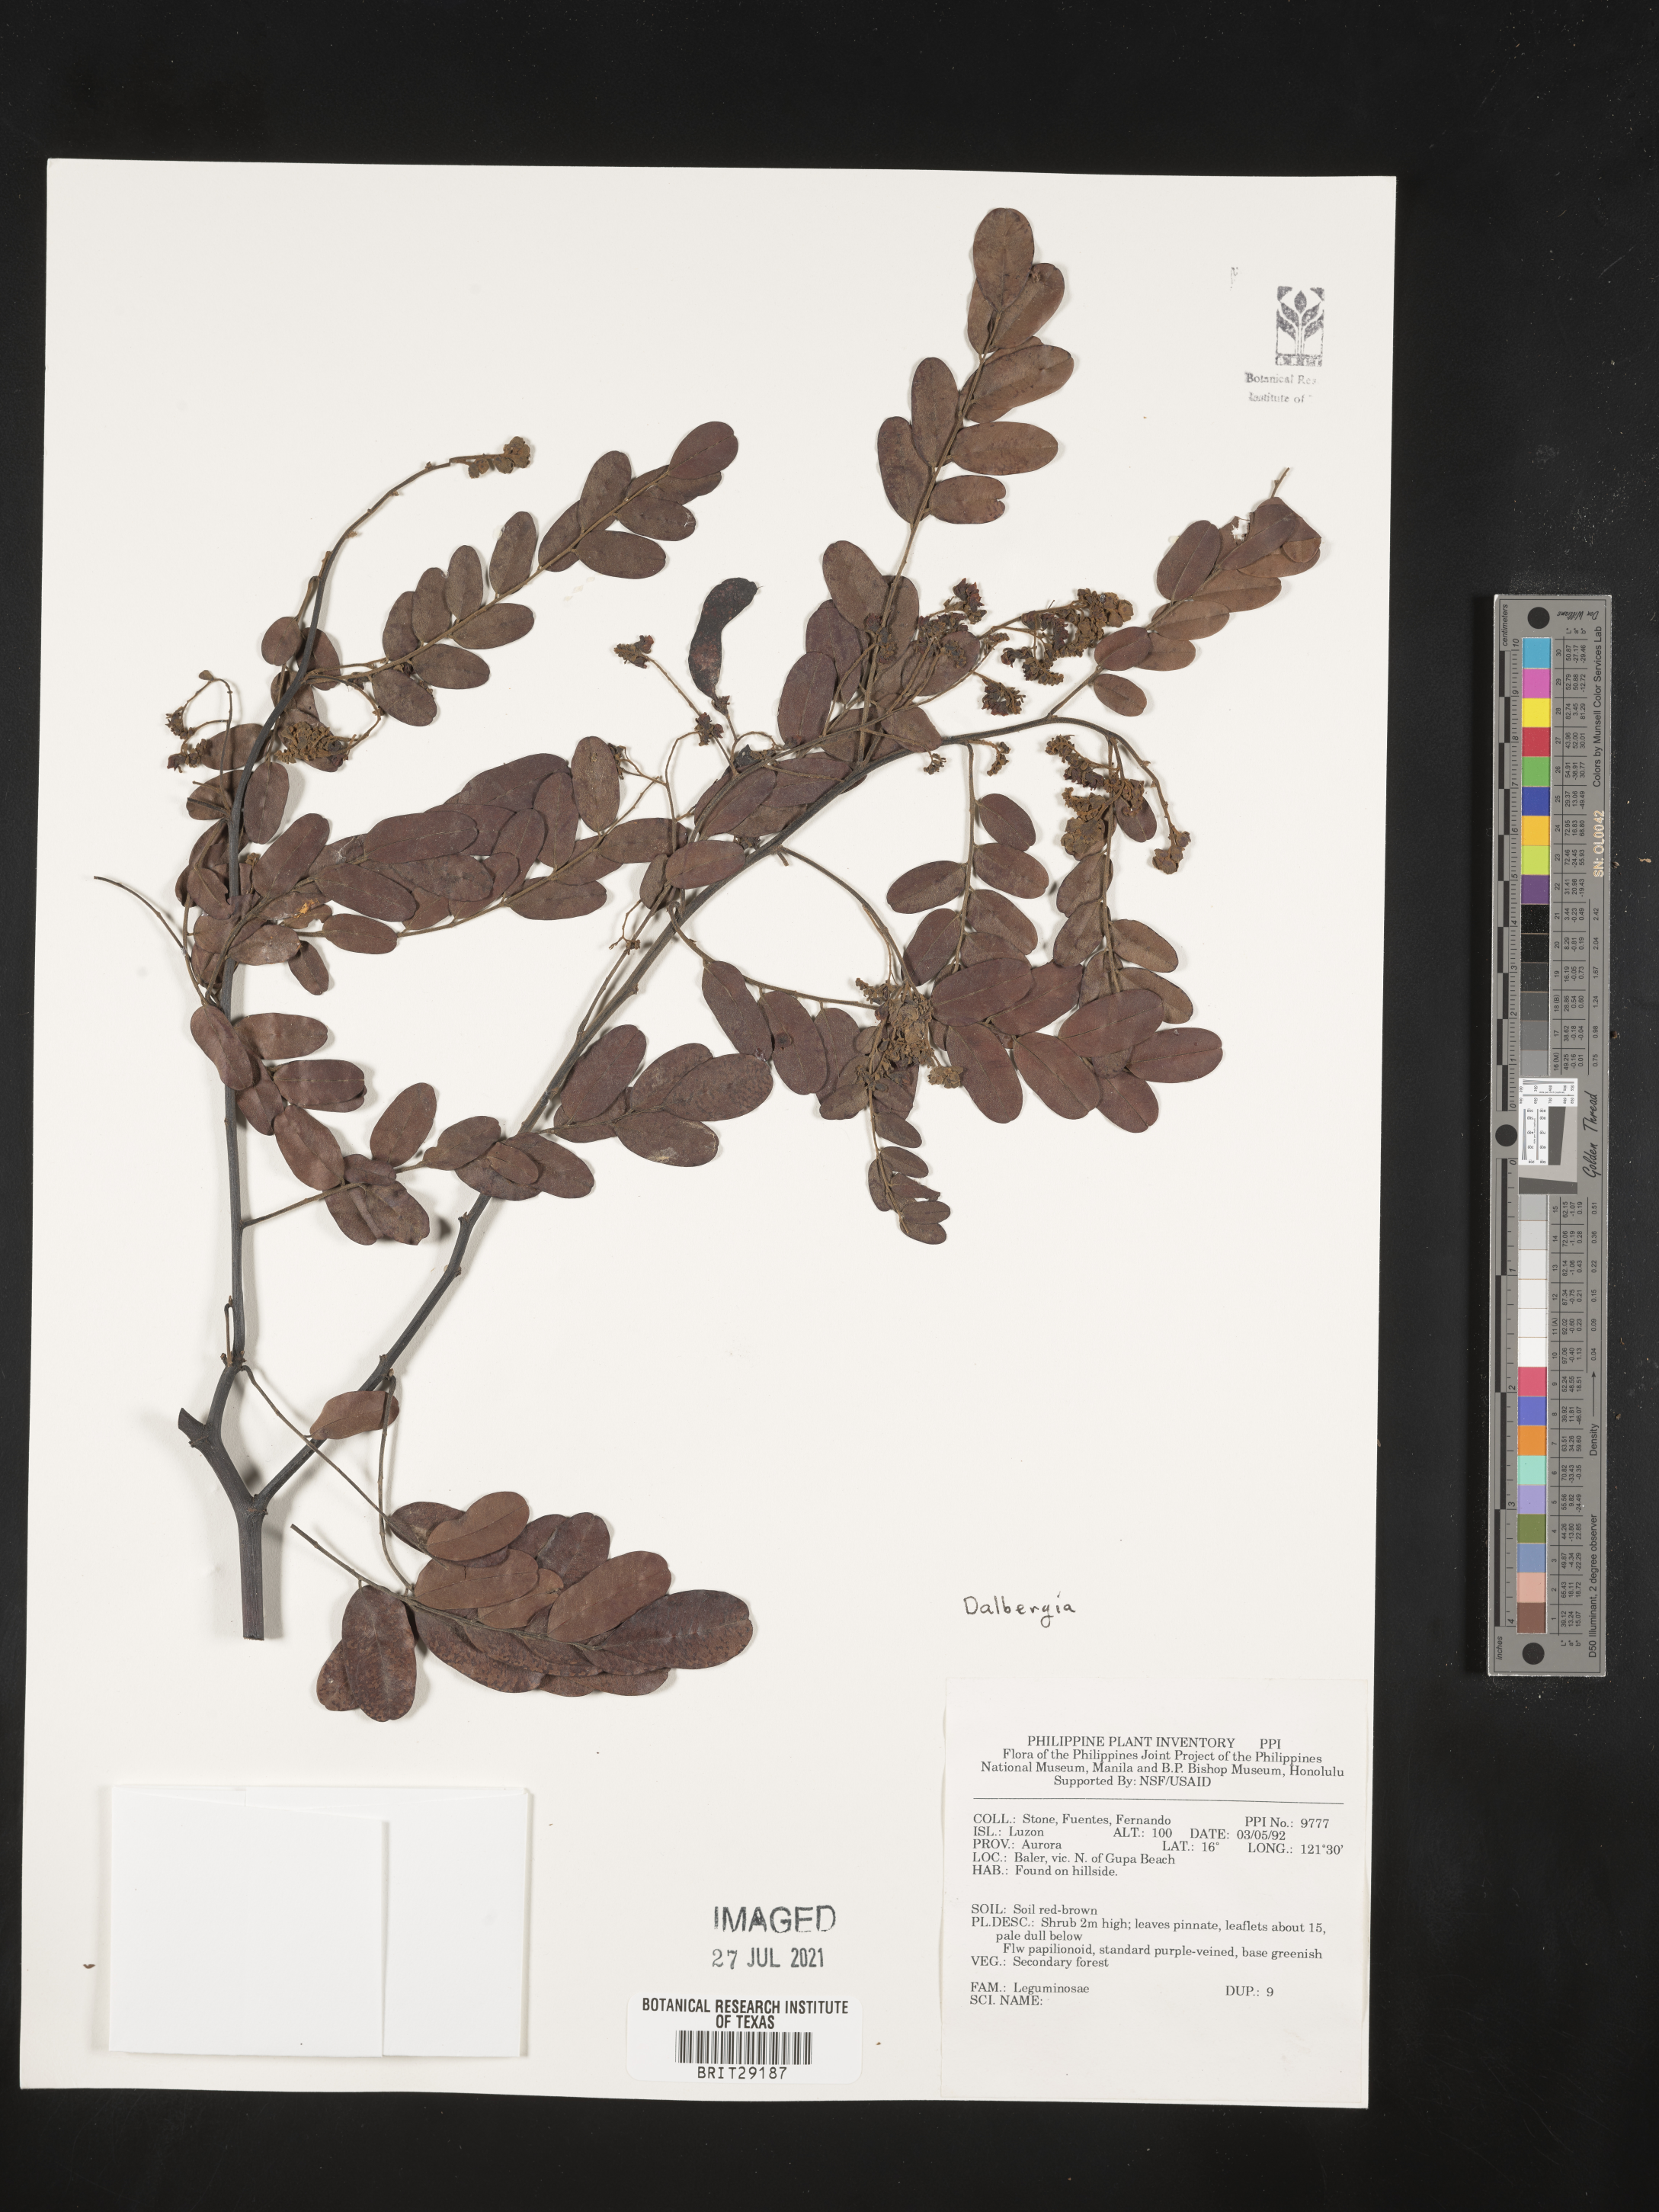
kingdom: Plantae
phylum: Tracheophyta
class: Magnoliopsida
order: Fabales
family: Fabaceae
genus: Dalbergia
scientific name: Dalbergia
